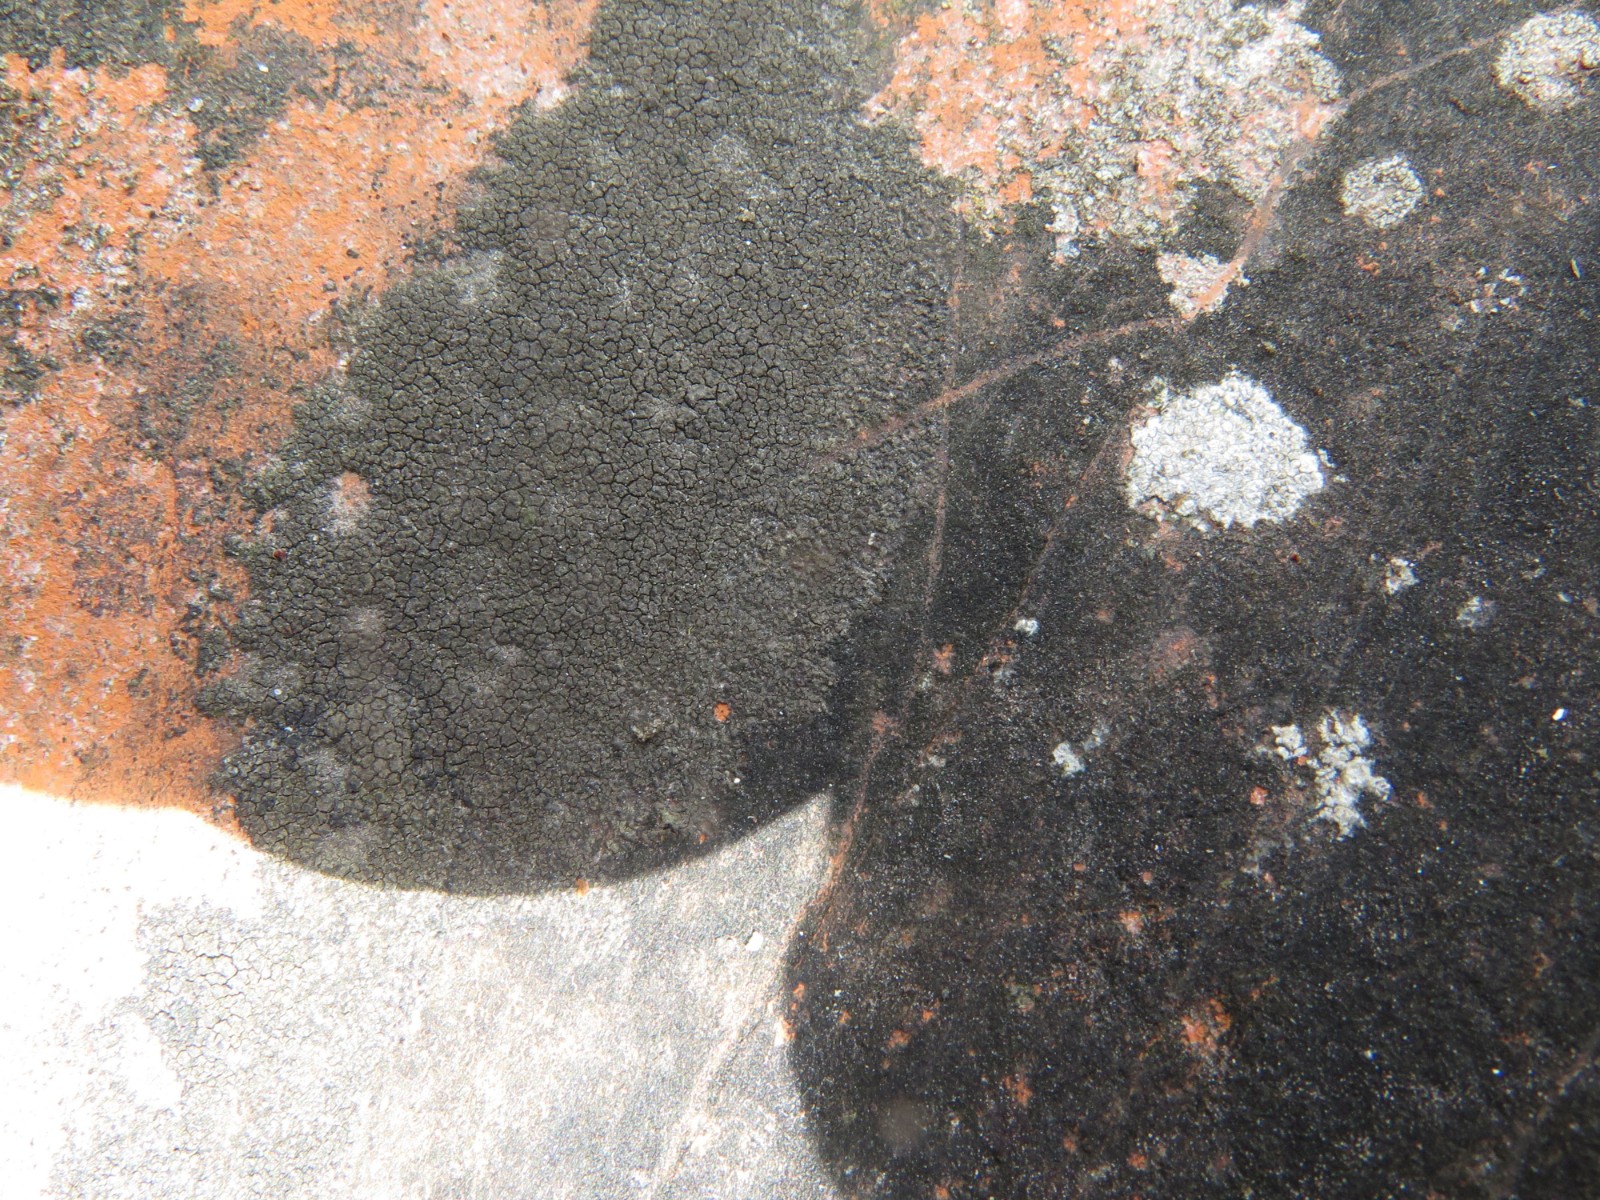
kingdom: Fungi
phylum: Ascomycota
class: Eurotiomycetes
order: Verrucariales
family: Verrucariaceae
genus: Verrucaria
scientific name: Verrucaria nigrescens
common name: sortbrun vortelav
